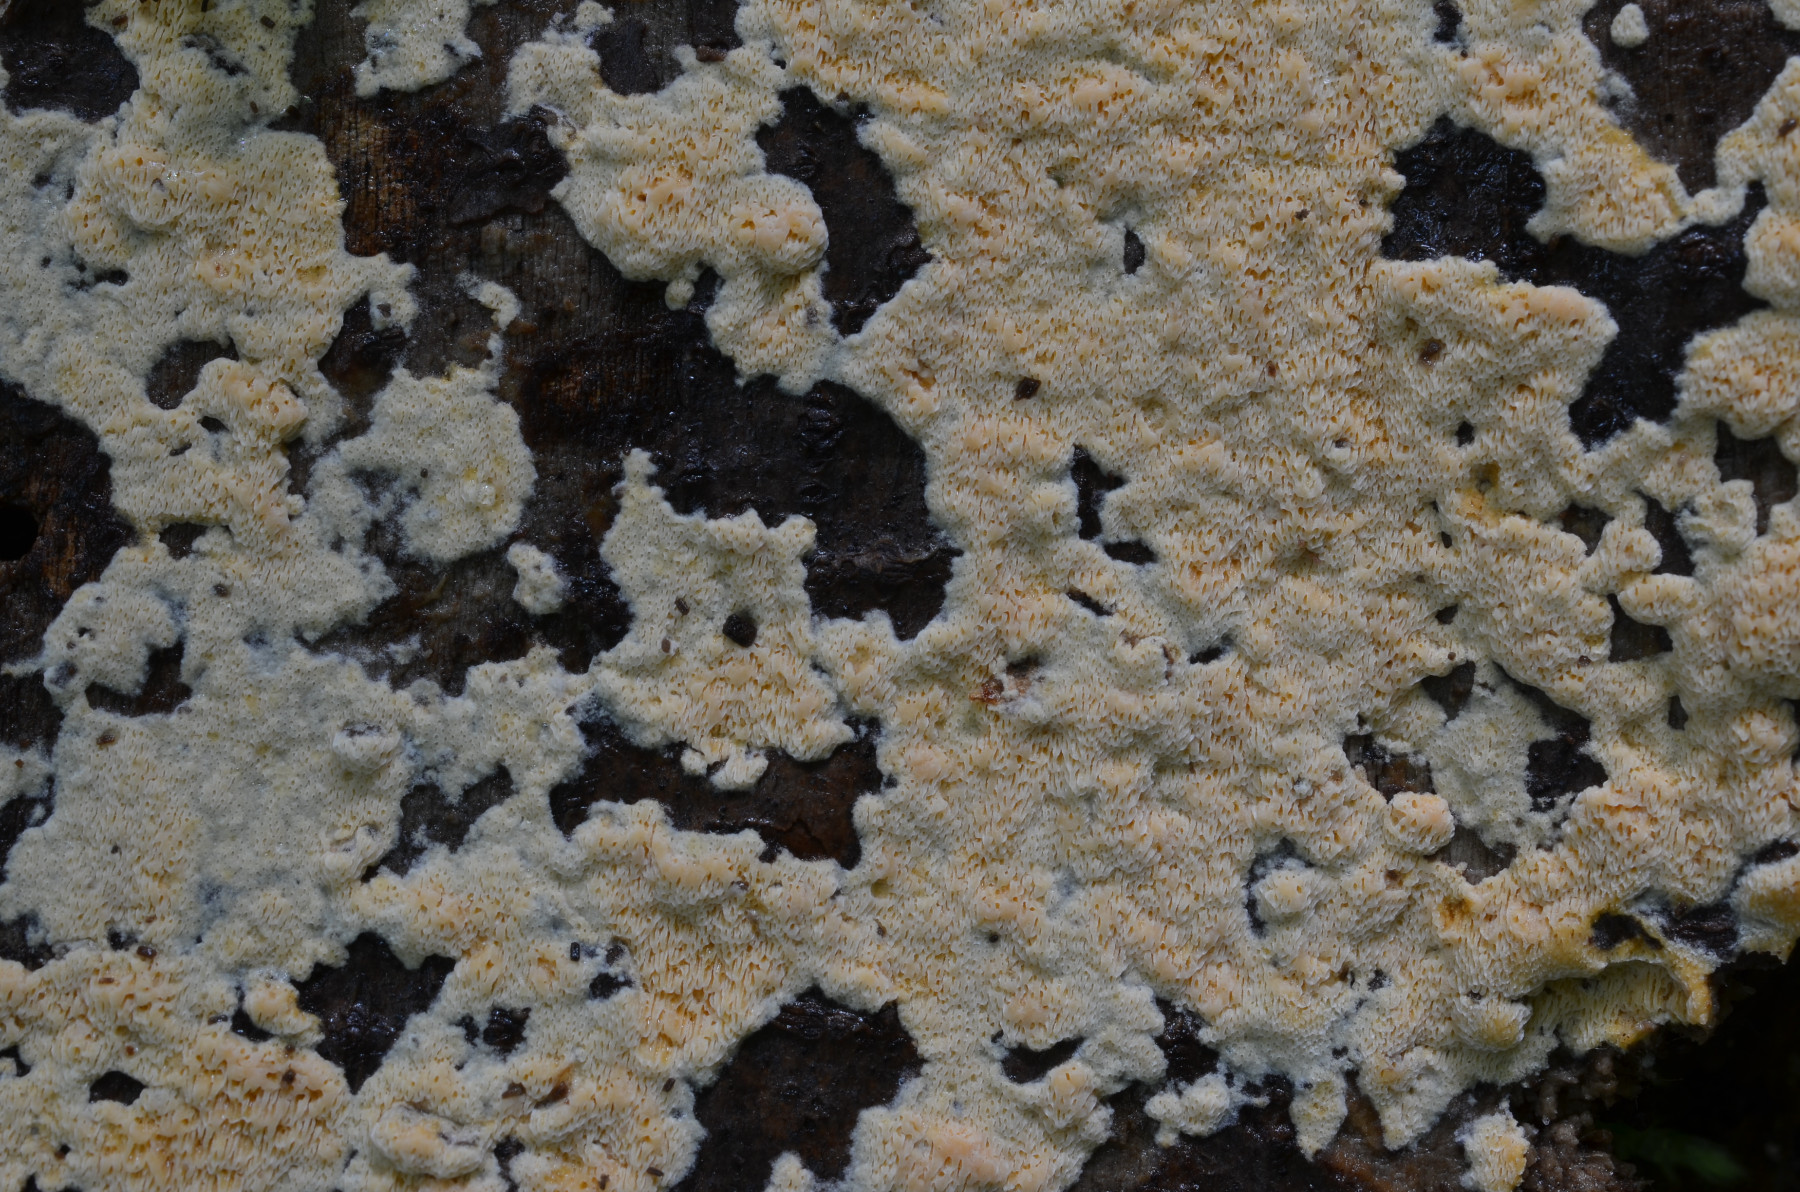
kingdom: Fungi
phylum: Basidiomycota
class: Agaricomycetes
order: Polyporales
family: Irpicaceae
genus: Ceriporia
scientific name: Ceriporia aurantiocarnescens
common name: orangerosa voksporesvamp
